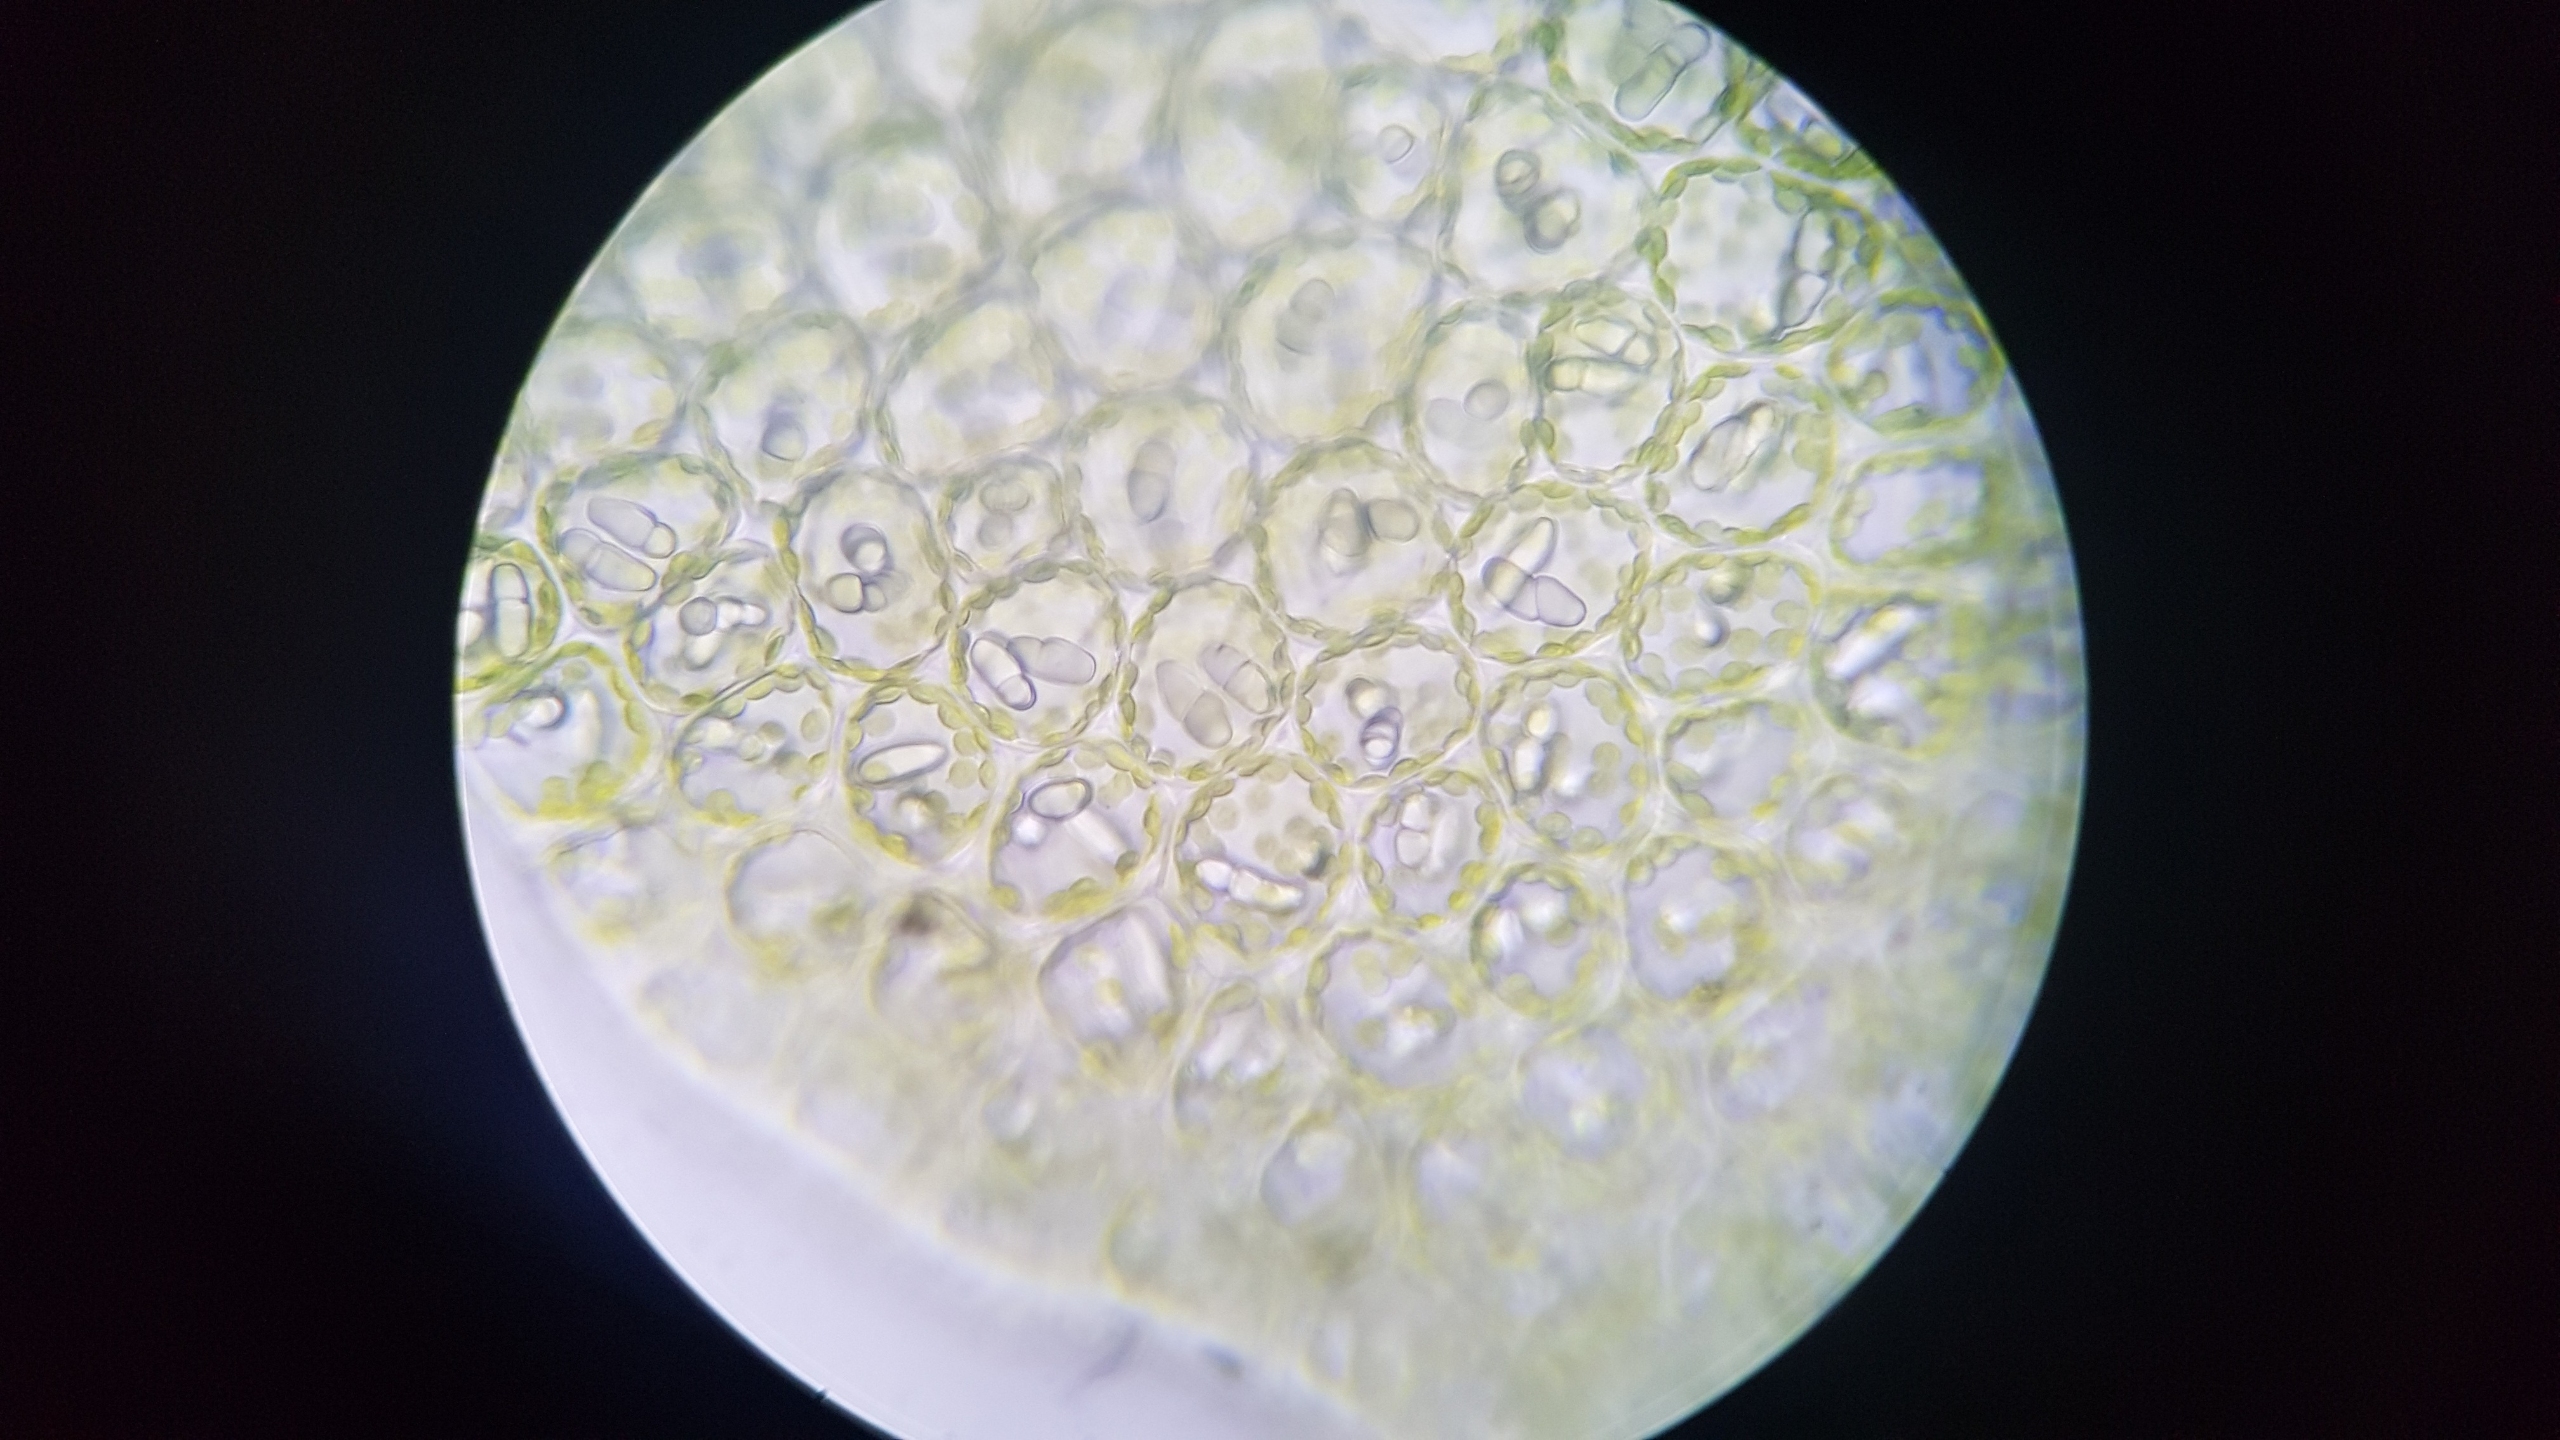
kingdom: Plantae
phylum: Marchantiophyta
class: Jungermanniopsida
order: Jungermanniales
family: Gymnomitriaceae
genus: Nardia
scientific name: Nardia scalaris
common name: Tæt kappesvøb
